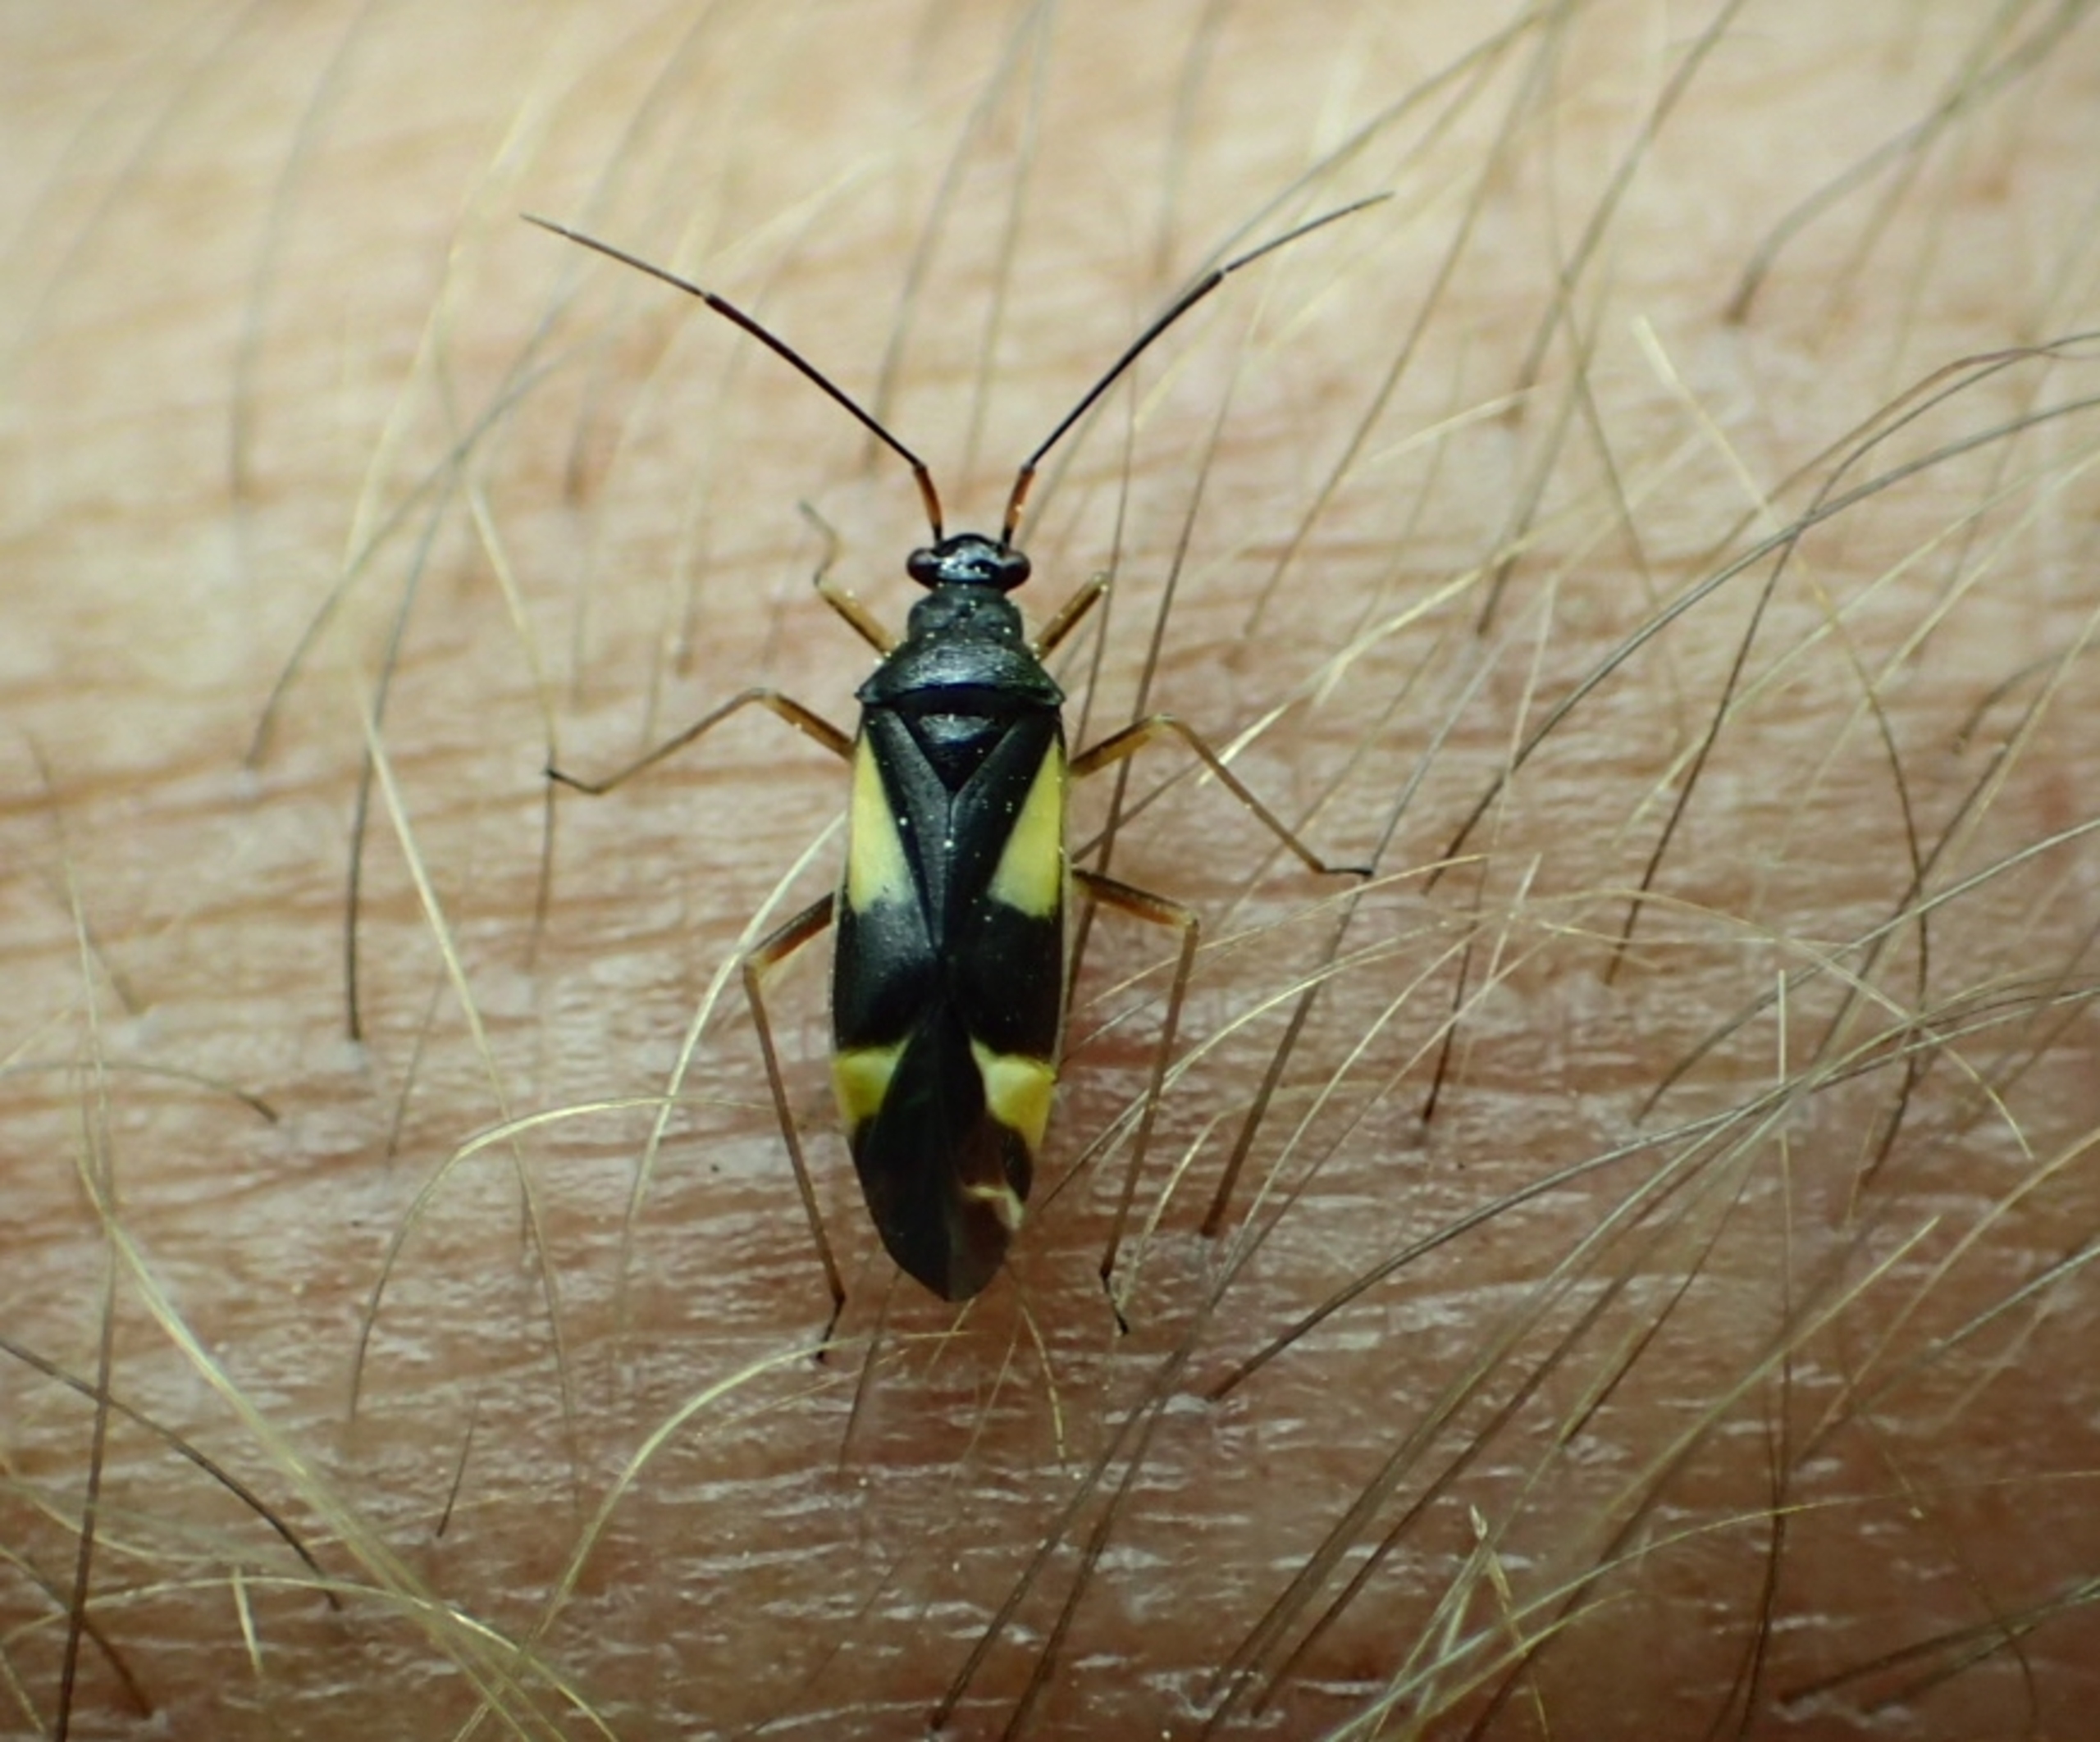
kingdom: Animalia
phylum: Arthropoda
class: Insecta
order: Hemiptera
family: Miridae
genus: Dryophilocoris
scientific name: Dryophilocoris flavoquadrimaculatus
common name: Fireplettet blomstertæge
